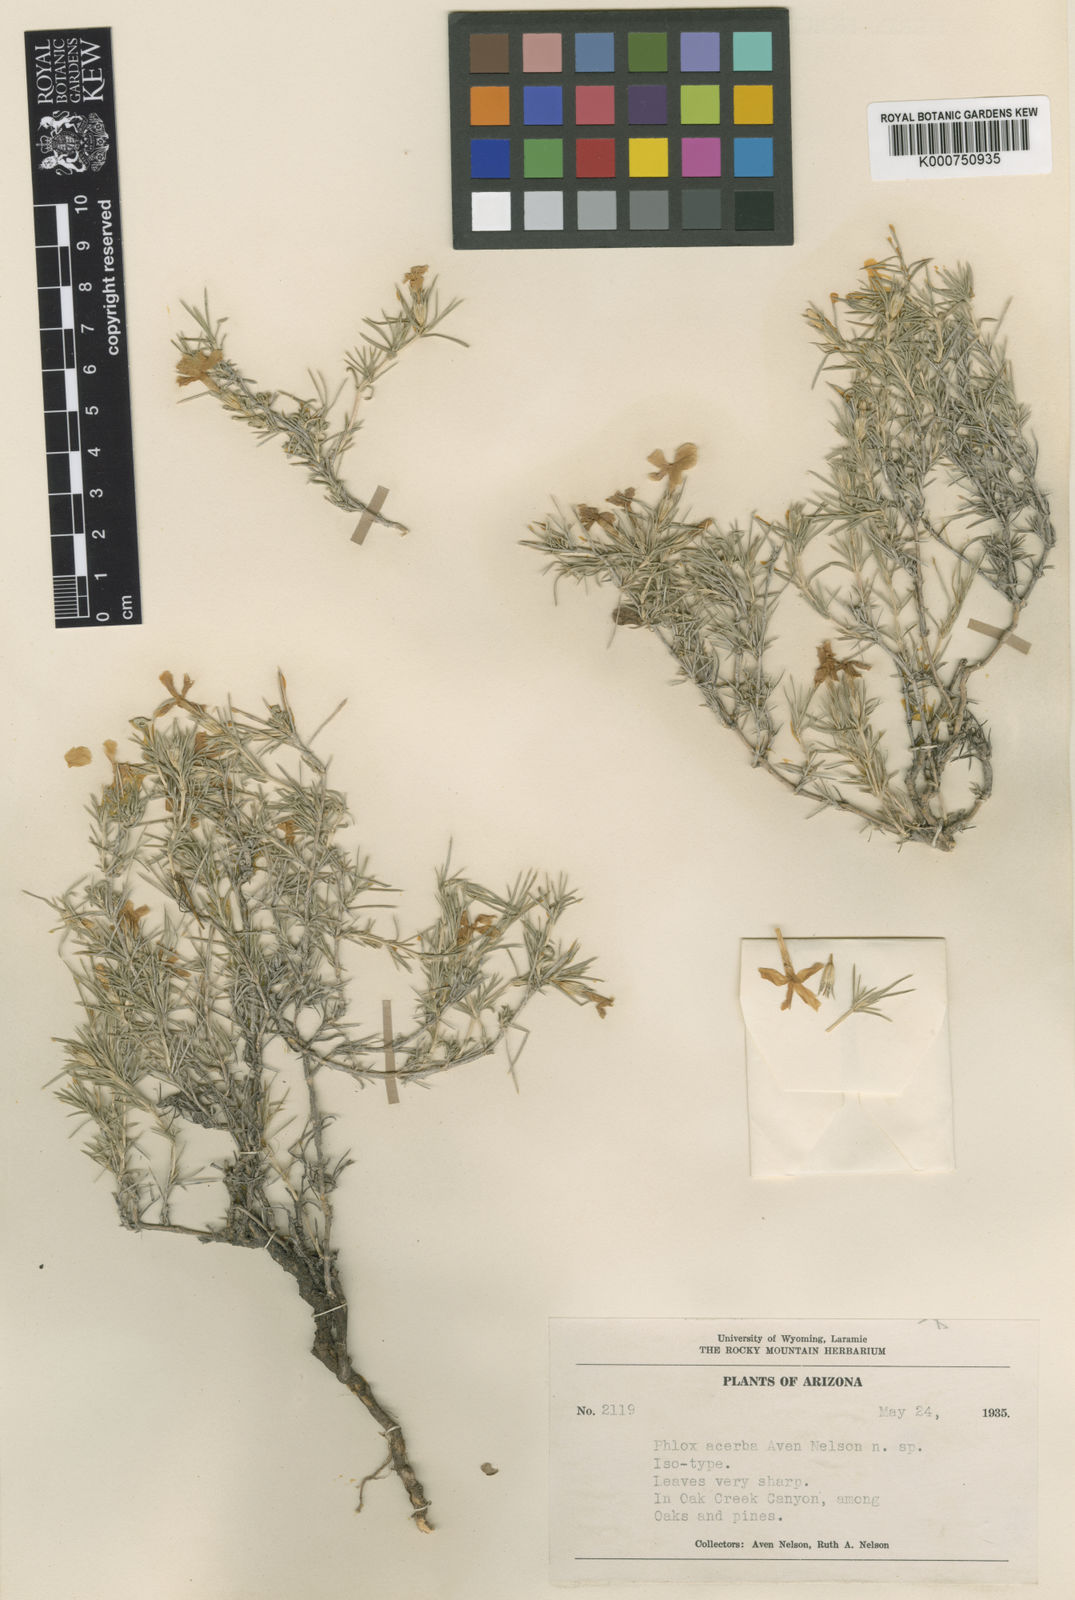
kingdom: Plantae
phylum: Tracheophyta
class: Magnoliopsida
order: Ericales
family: Polemoniaceae
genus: Phlox
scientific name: Phlox austromontana
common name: Desert phlox
